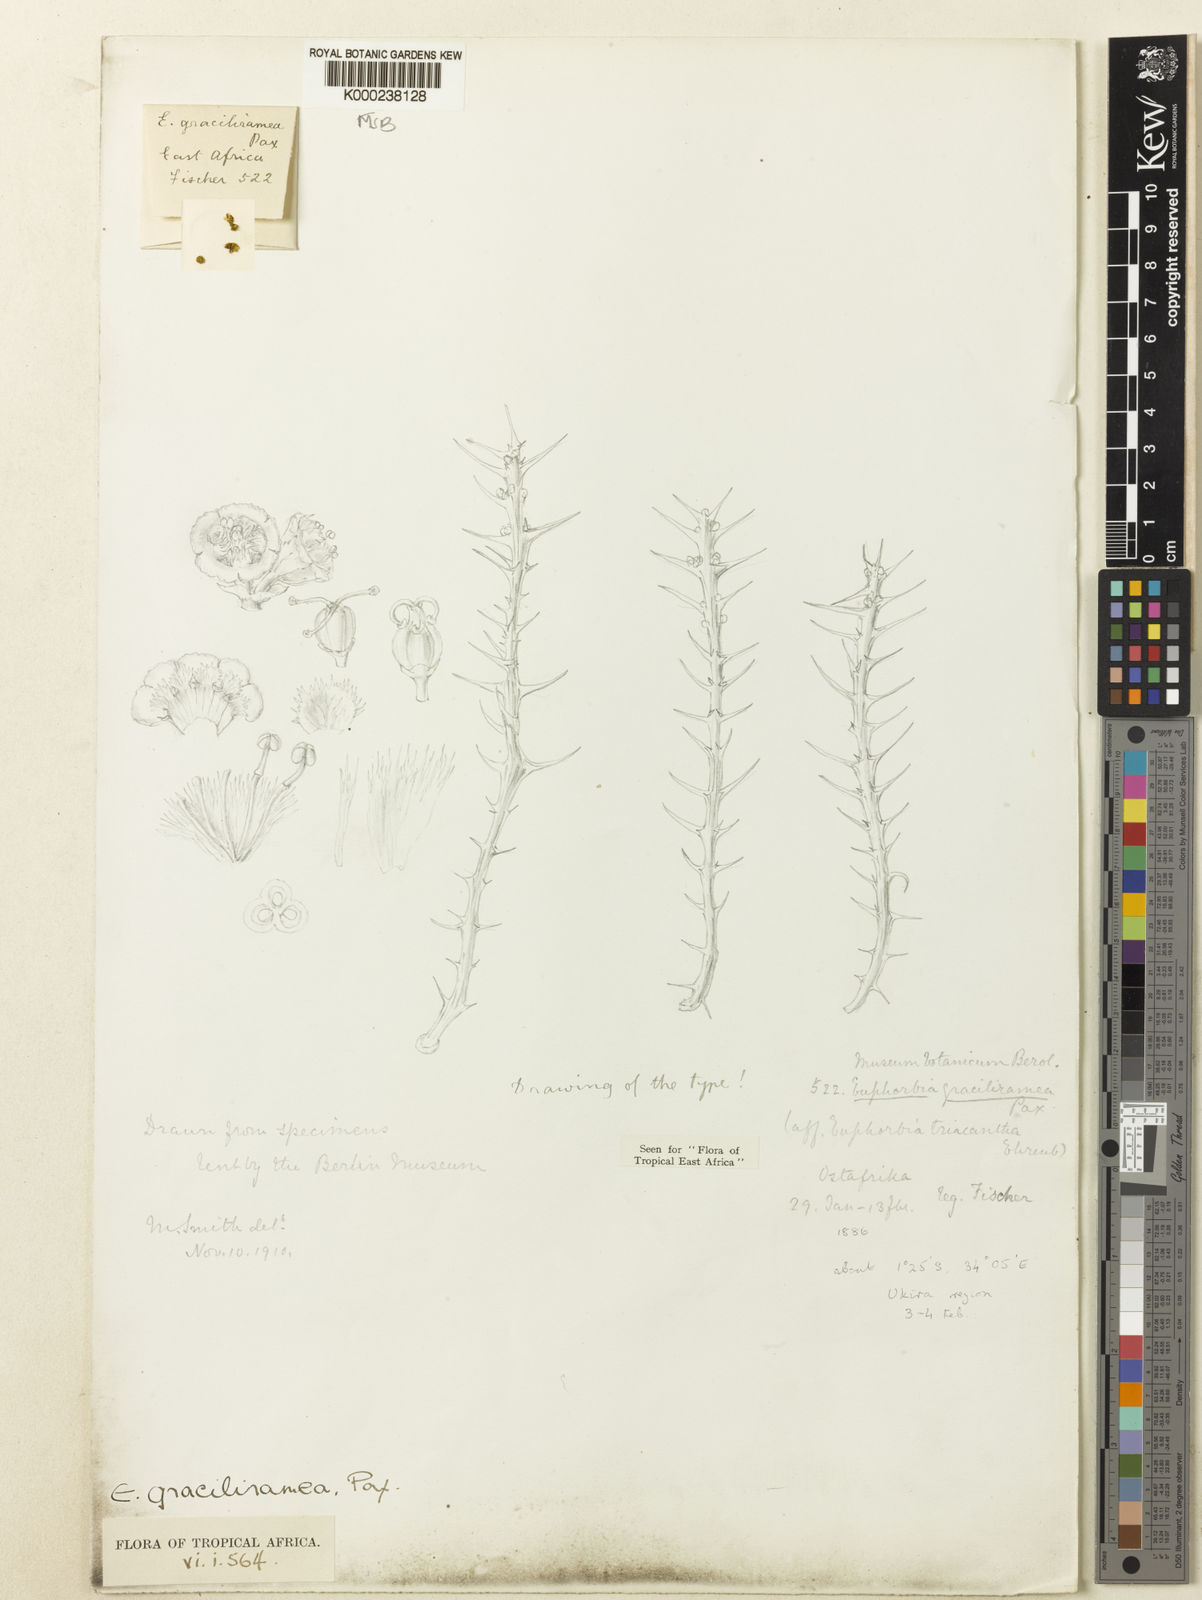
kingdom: Plantae
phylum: Tracheophyta
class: Magnoliopsida
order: Malpighiales
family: Euphorbiaceae
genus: Euphorbia
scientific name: Euphorbia graciliramea
